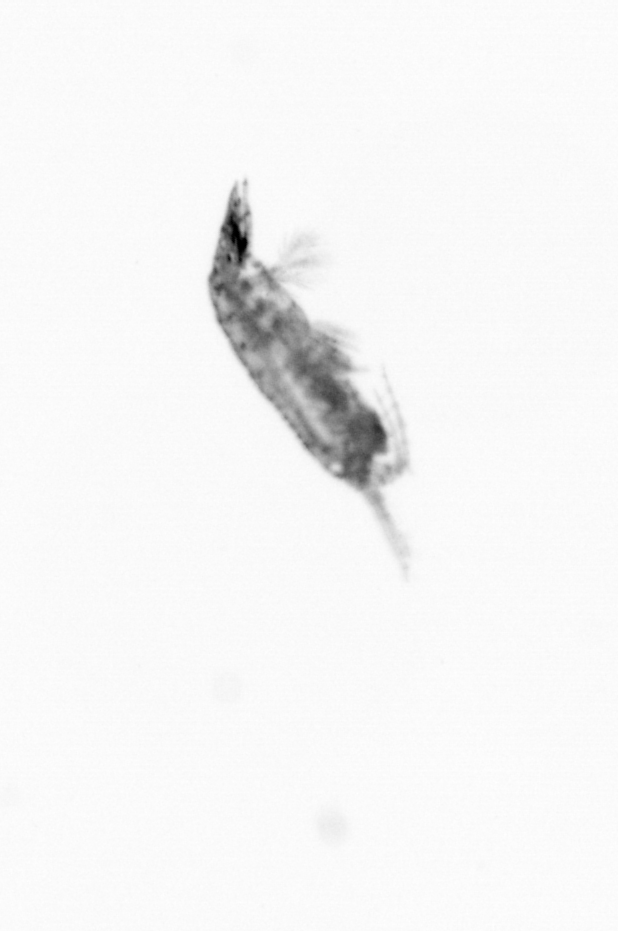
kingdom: Animalia
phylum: Arthropoda
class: Copepoda
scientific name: Copepoda
